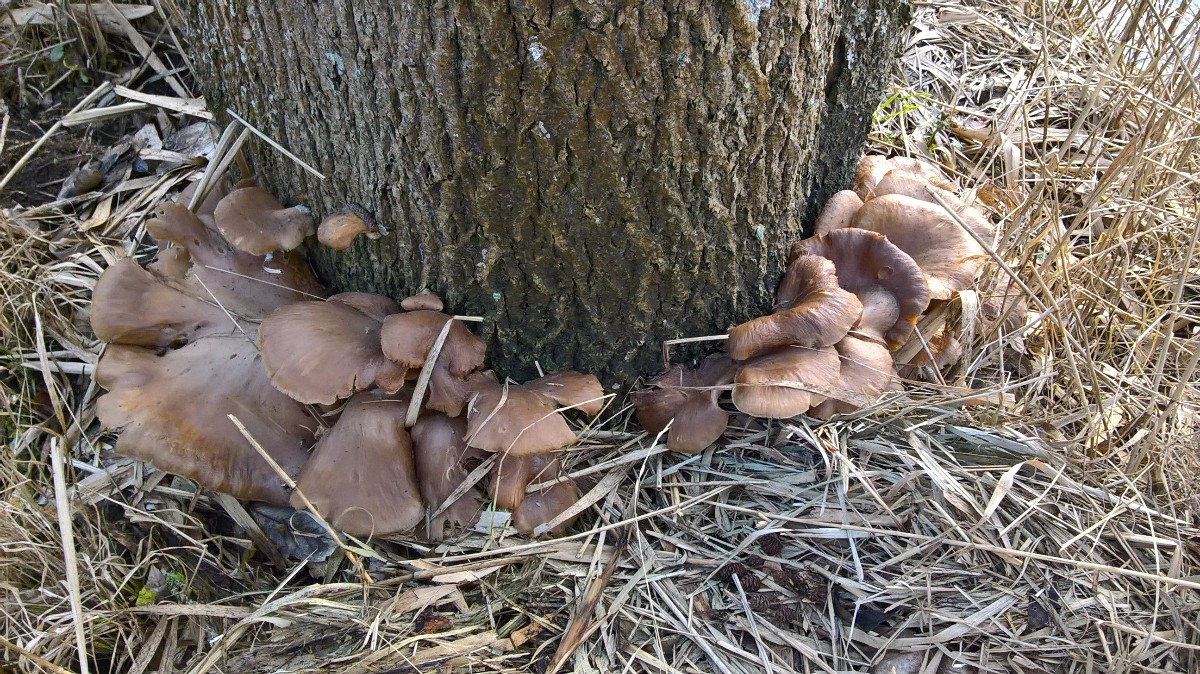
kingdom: Fungi
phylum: Basidiomycota
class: Agaricomycetes
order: Agaricales
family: Pleurotaceae
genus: Pleurotus
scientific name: Pleurotus ostreatus
